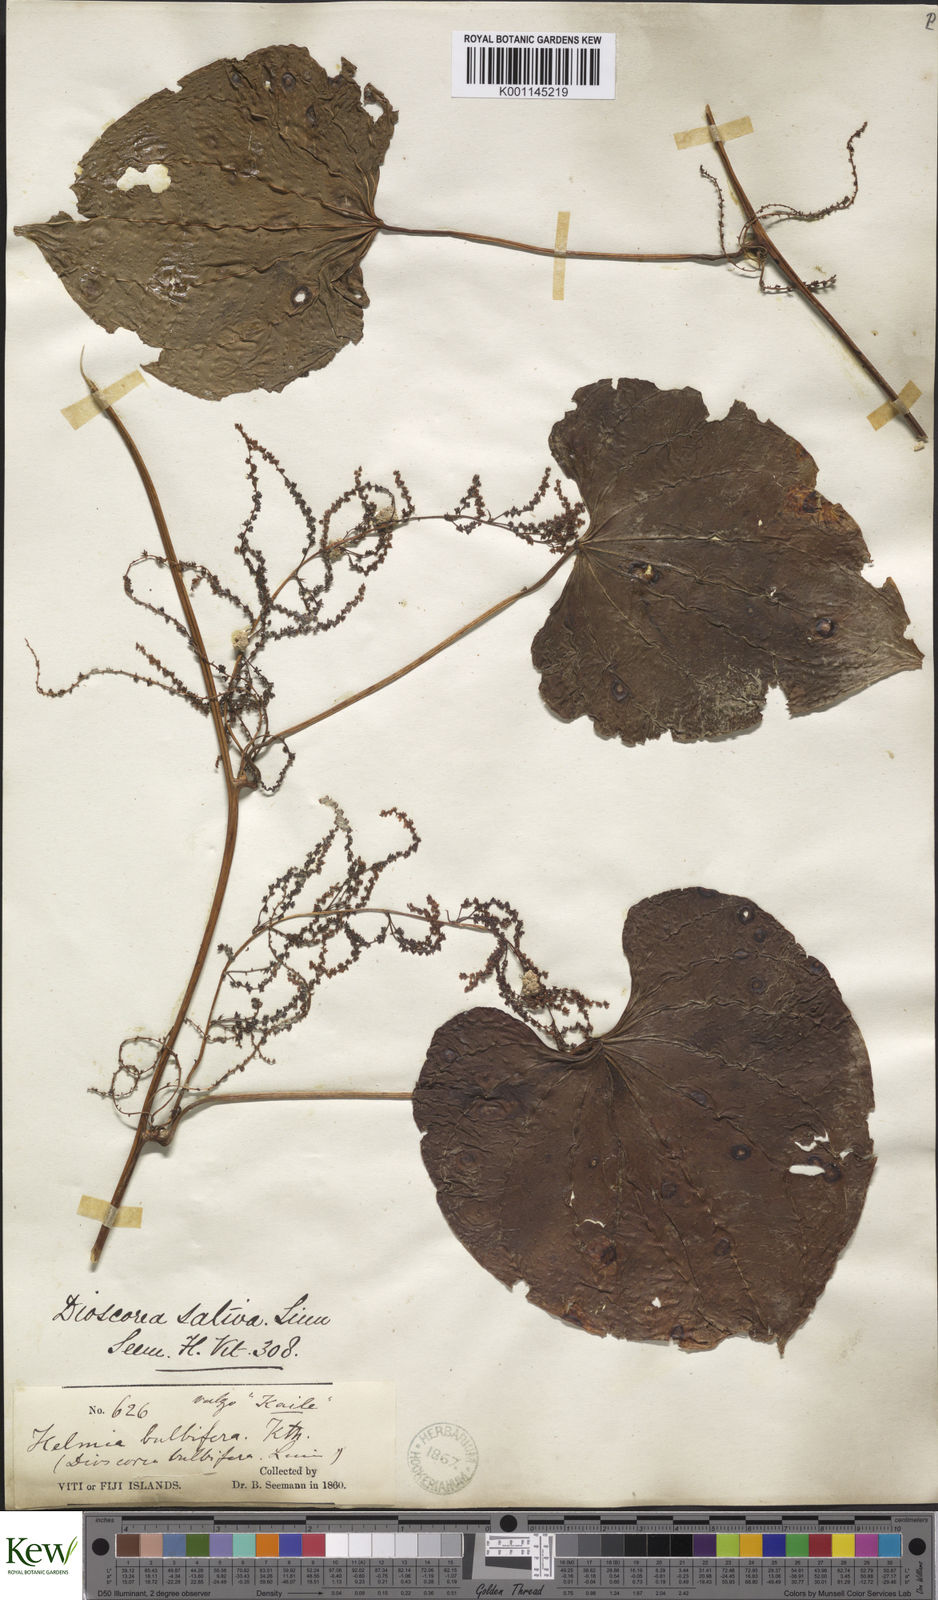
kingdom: Plantae
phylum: Tracheophyta
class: Liliopsida
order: Dioscoreales
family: Dioscoreaceae
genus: Dioscorea
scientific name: Dioscorea bulbifera
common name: Air yam
